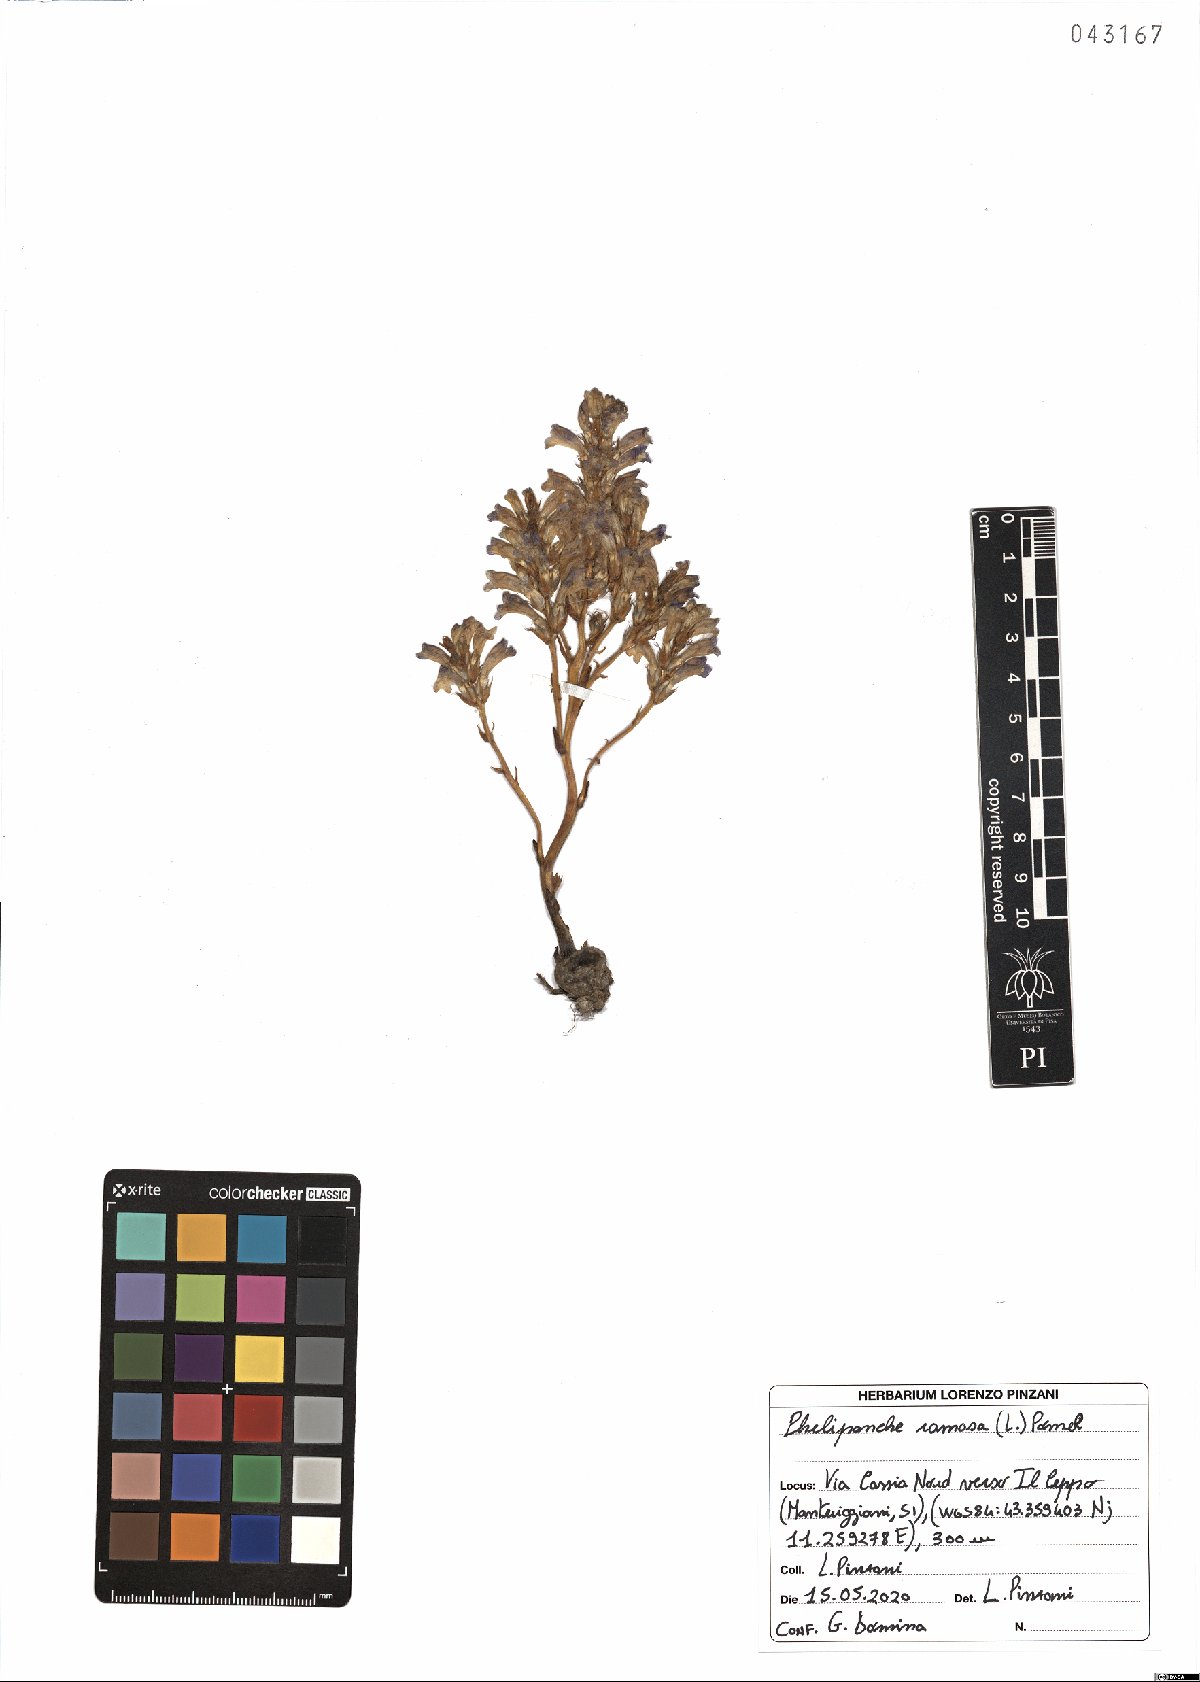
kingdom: Plantae
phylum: Tracheophyta
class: Magnoliopsida
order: Lamiales
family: Orobanchaceae
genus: Phelipanche
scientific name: Phelipanche ramosa
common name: Branched broomrape
